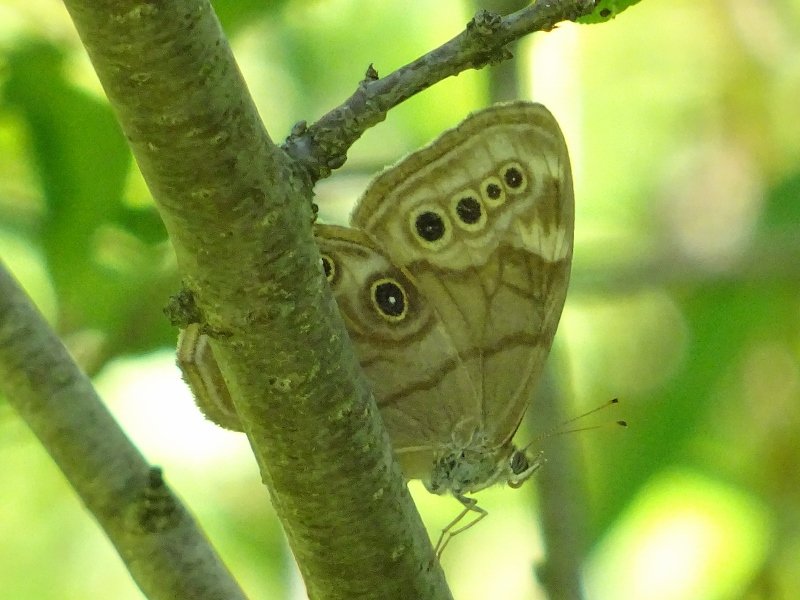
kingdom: Animalia
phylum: Arthropoda
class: Insecta
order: Lepidoptera
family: Nymphalidae
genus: Lethe
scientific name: Lethe anthedon
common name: Northern Pearly-Eye
